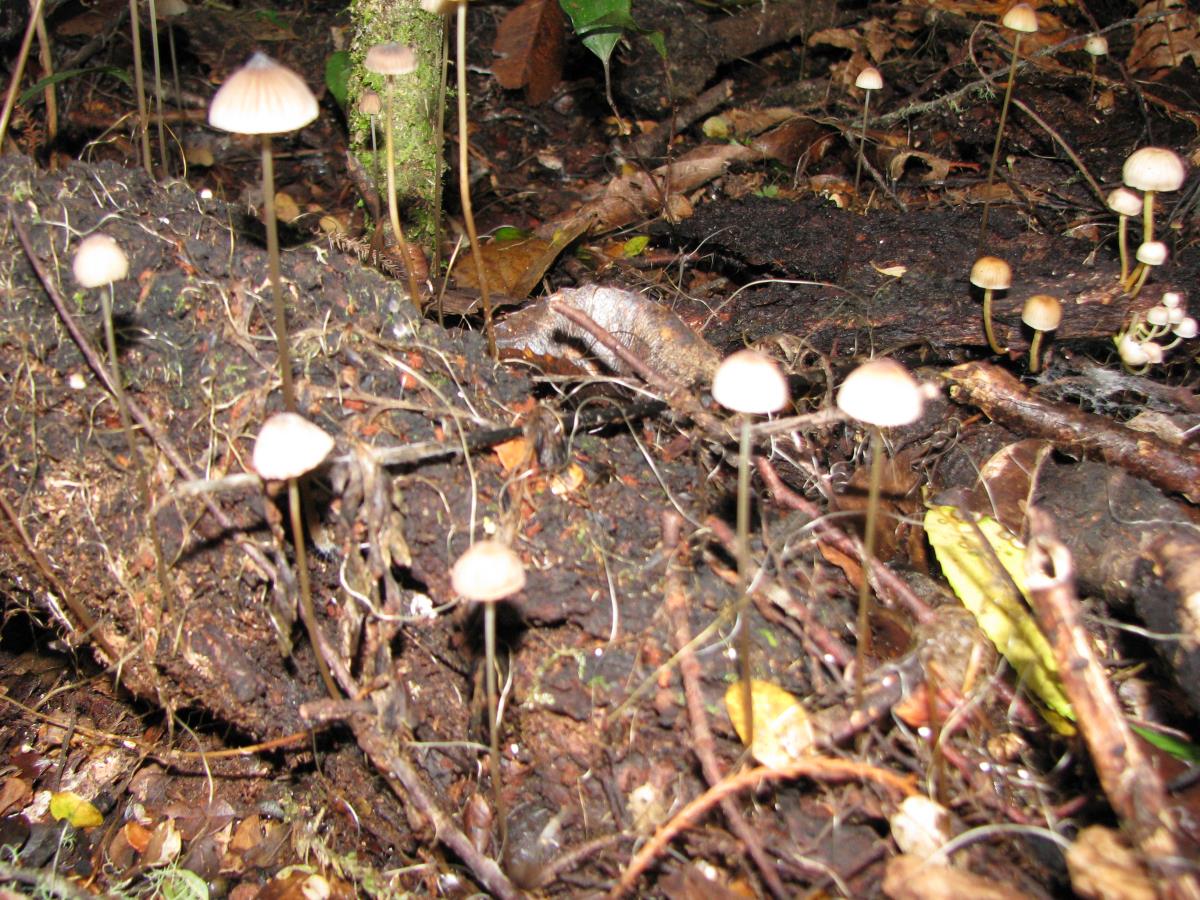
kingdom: Fungi
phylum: Basidiomycota
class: Agaricomycetes
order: Agaricales
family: Mycenaceae
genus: Mycena
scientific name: Mycena cystidiosa
